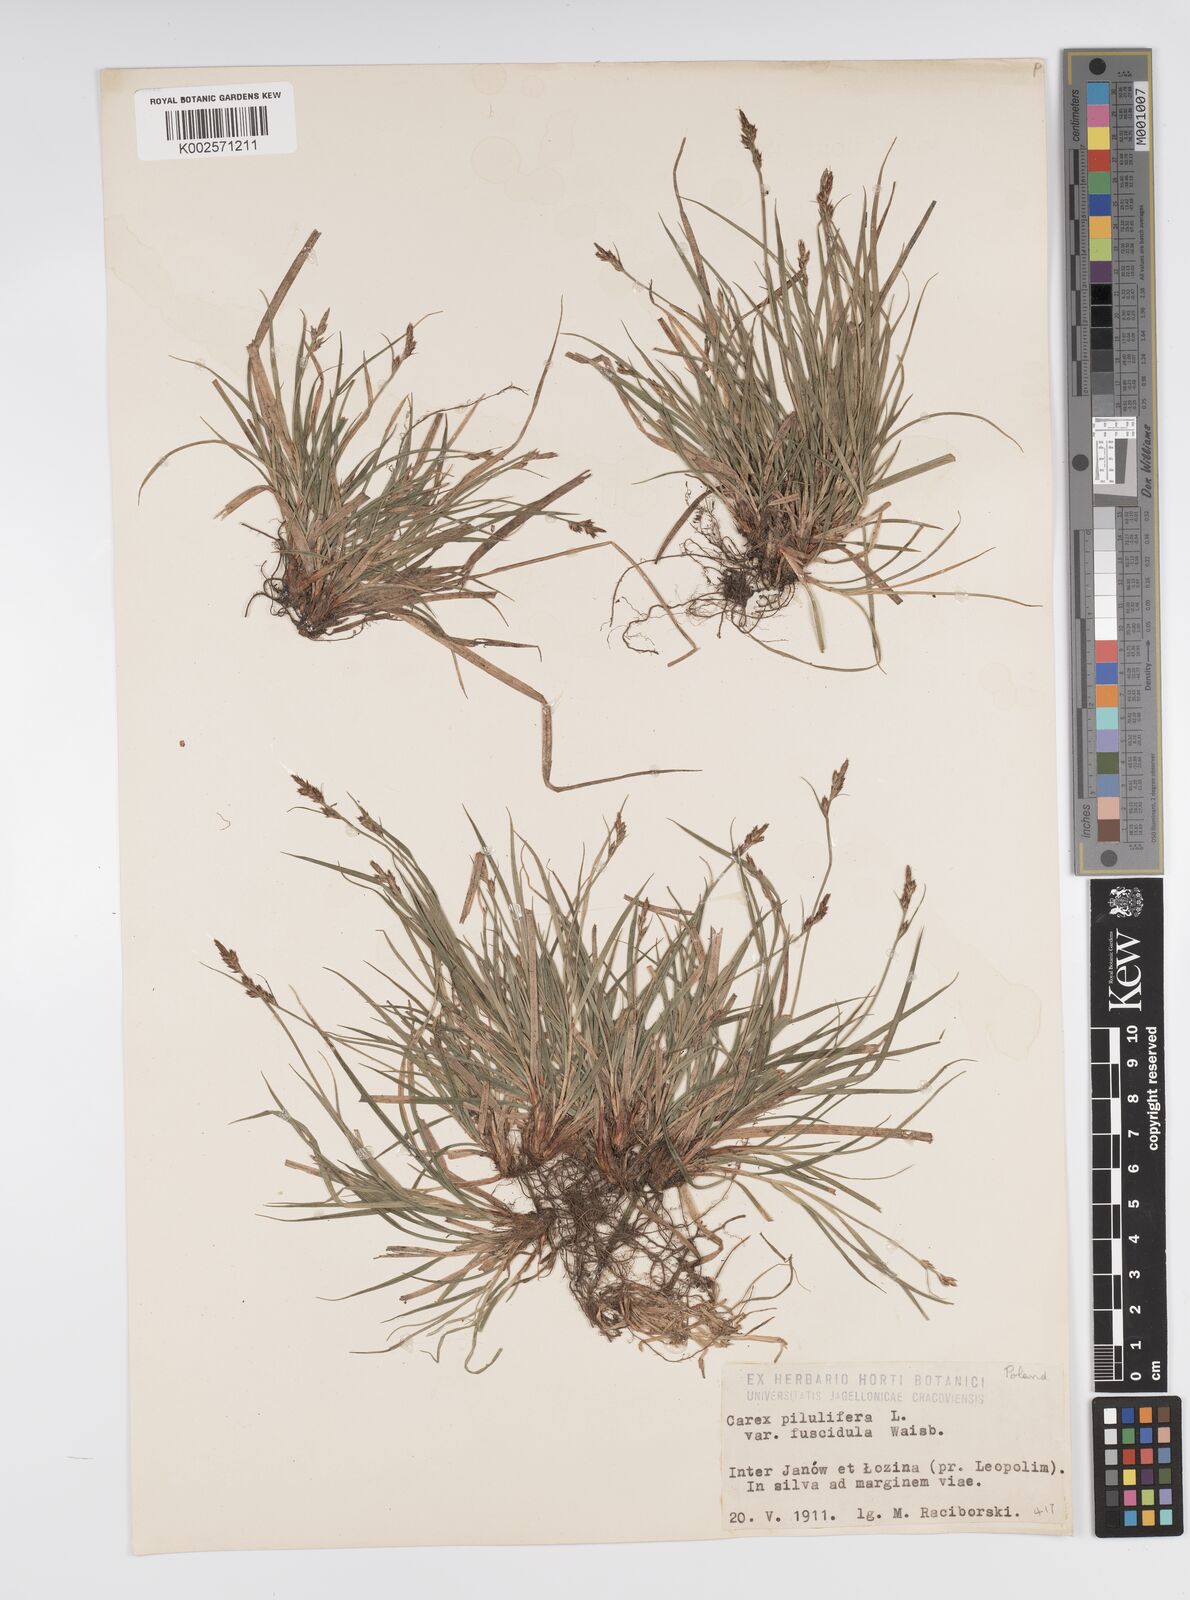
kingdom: Plantae
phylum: Tracheophyta
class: Liliopsida
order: Poales
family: Cyperaceae
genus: Carex
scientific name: Carex pilulifera
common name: Pill sedge
